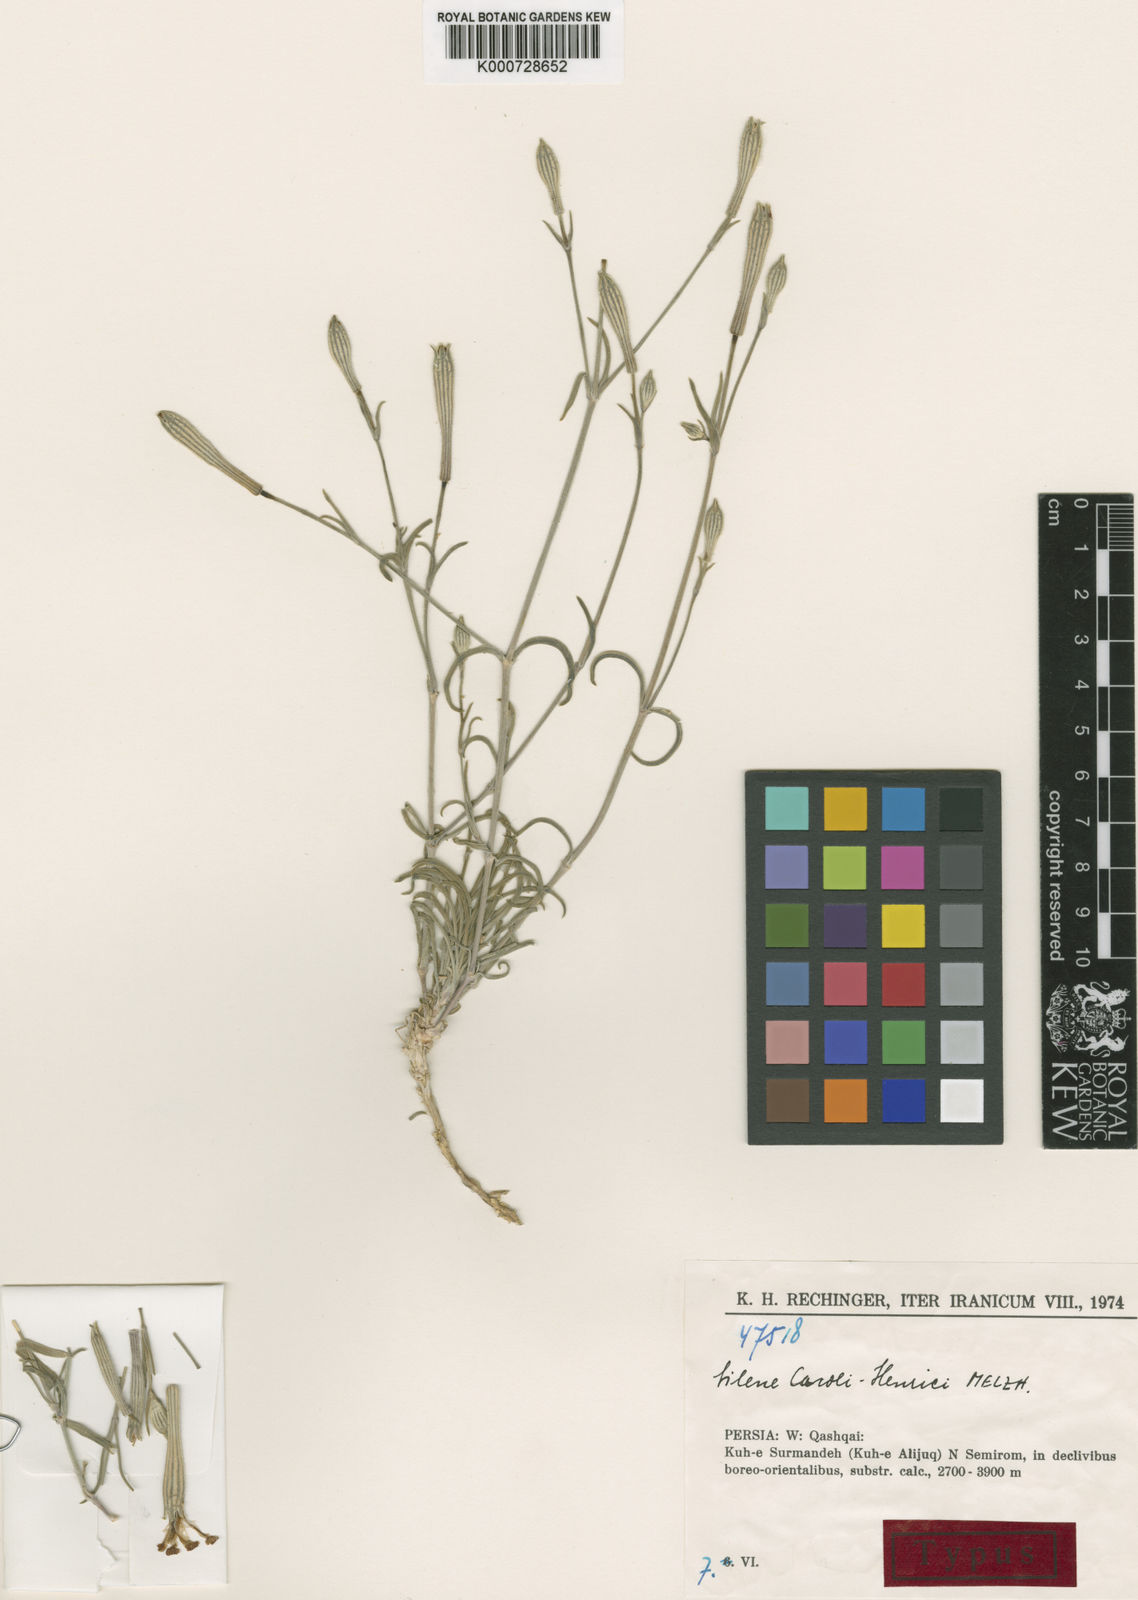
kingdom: Plantae
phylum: Tracheophyta
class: Magnoliopsida
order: Caryophyllales
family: Caryophyllaceae
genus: Silene
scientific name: Silene caroli-henrici
